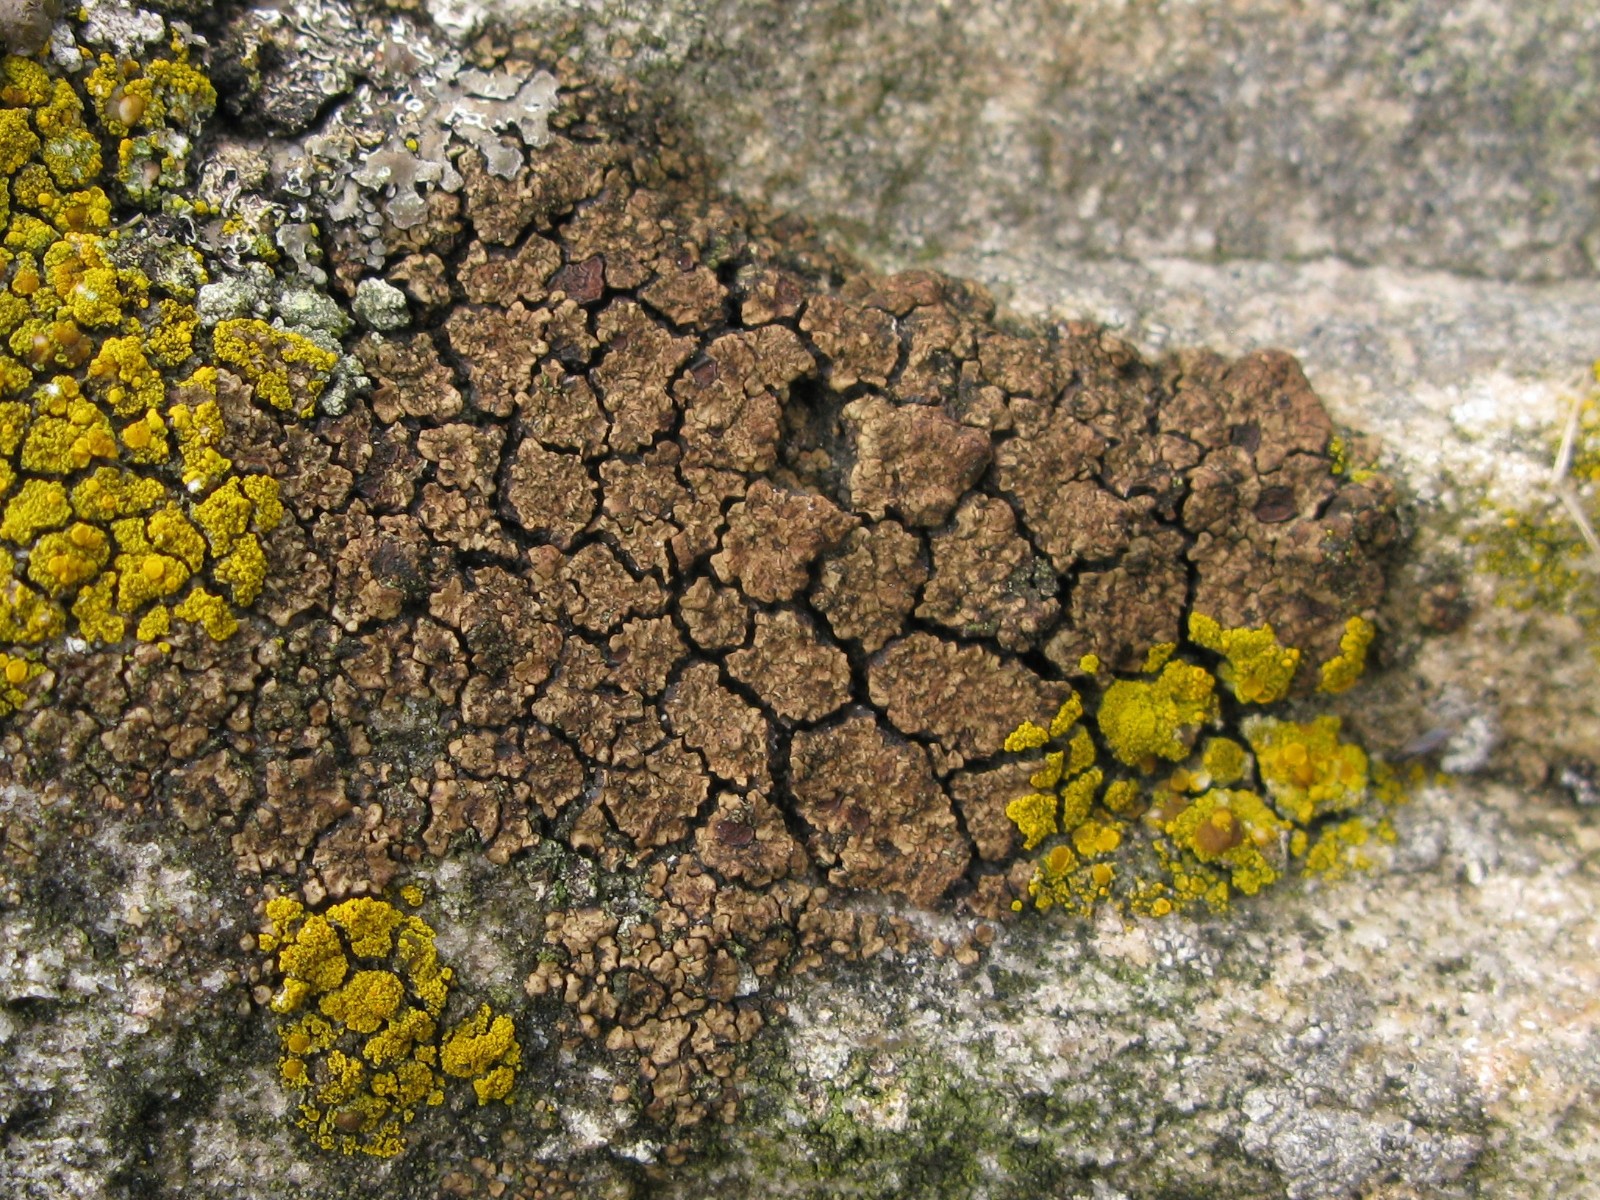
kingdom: Fungi
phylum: Ascomycota
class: Lecanoromycetes
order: Acarosporales
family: Acarosporaceae
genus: Acarospora
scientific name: Acarospora fuscata
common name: brun småsporelav
